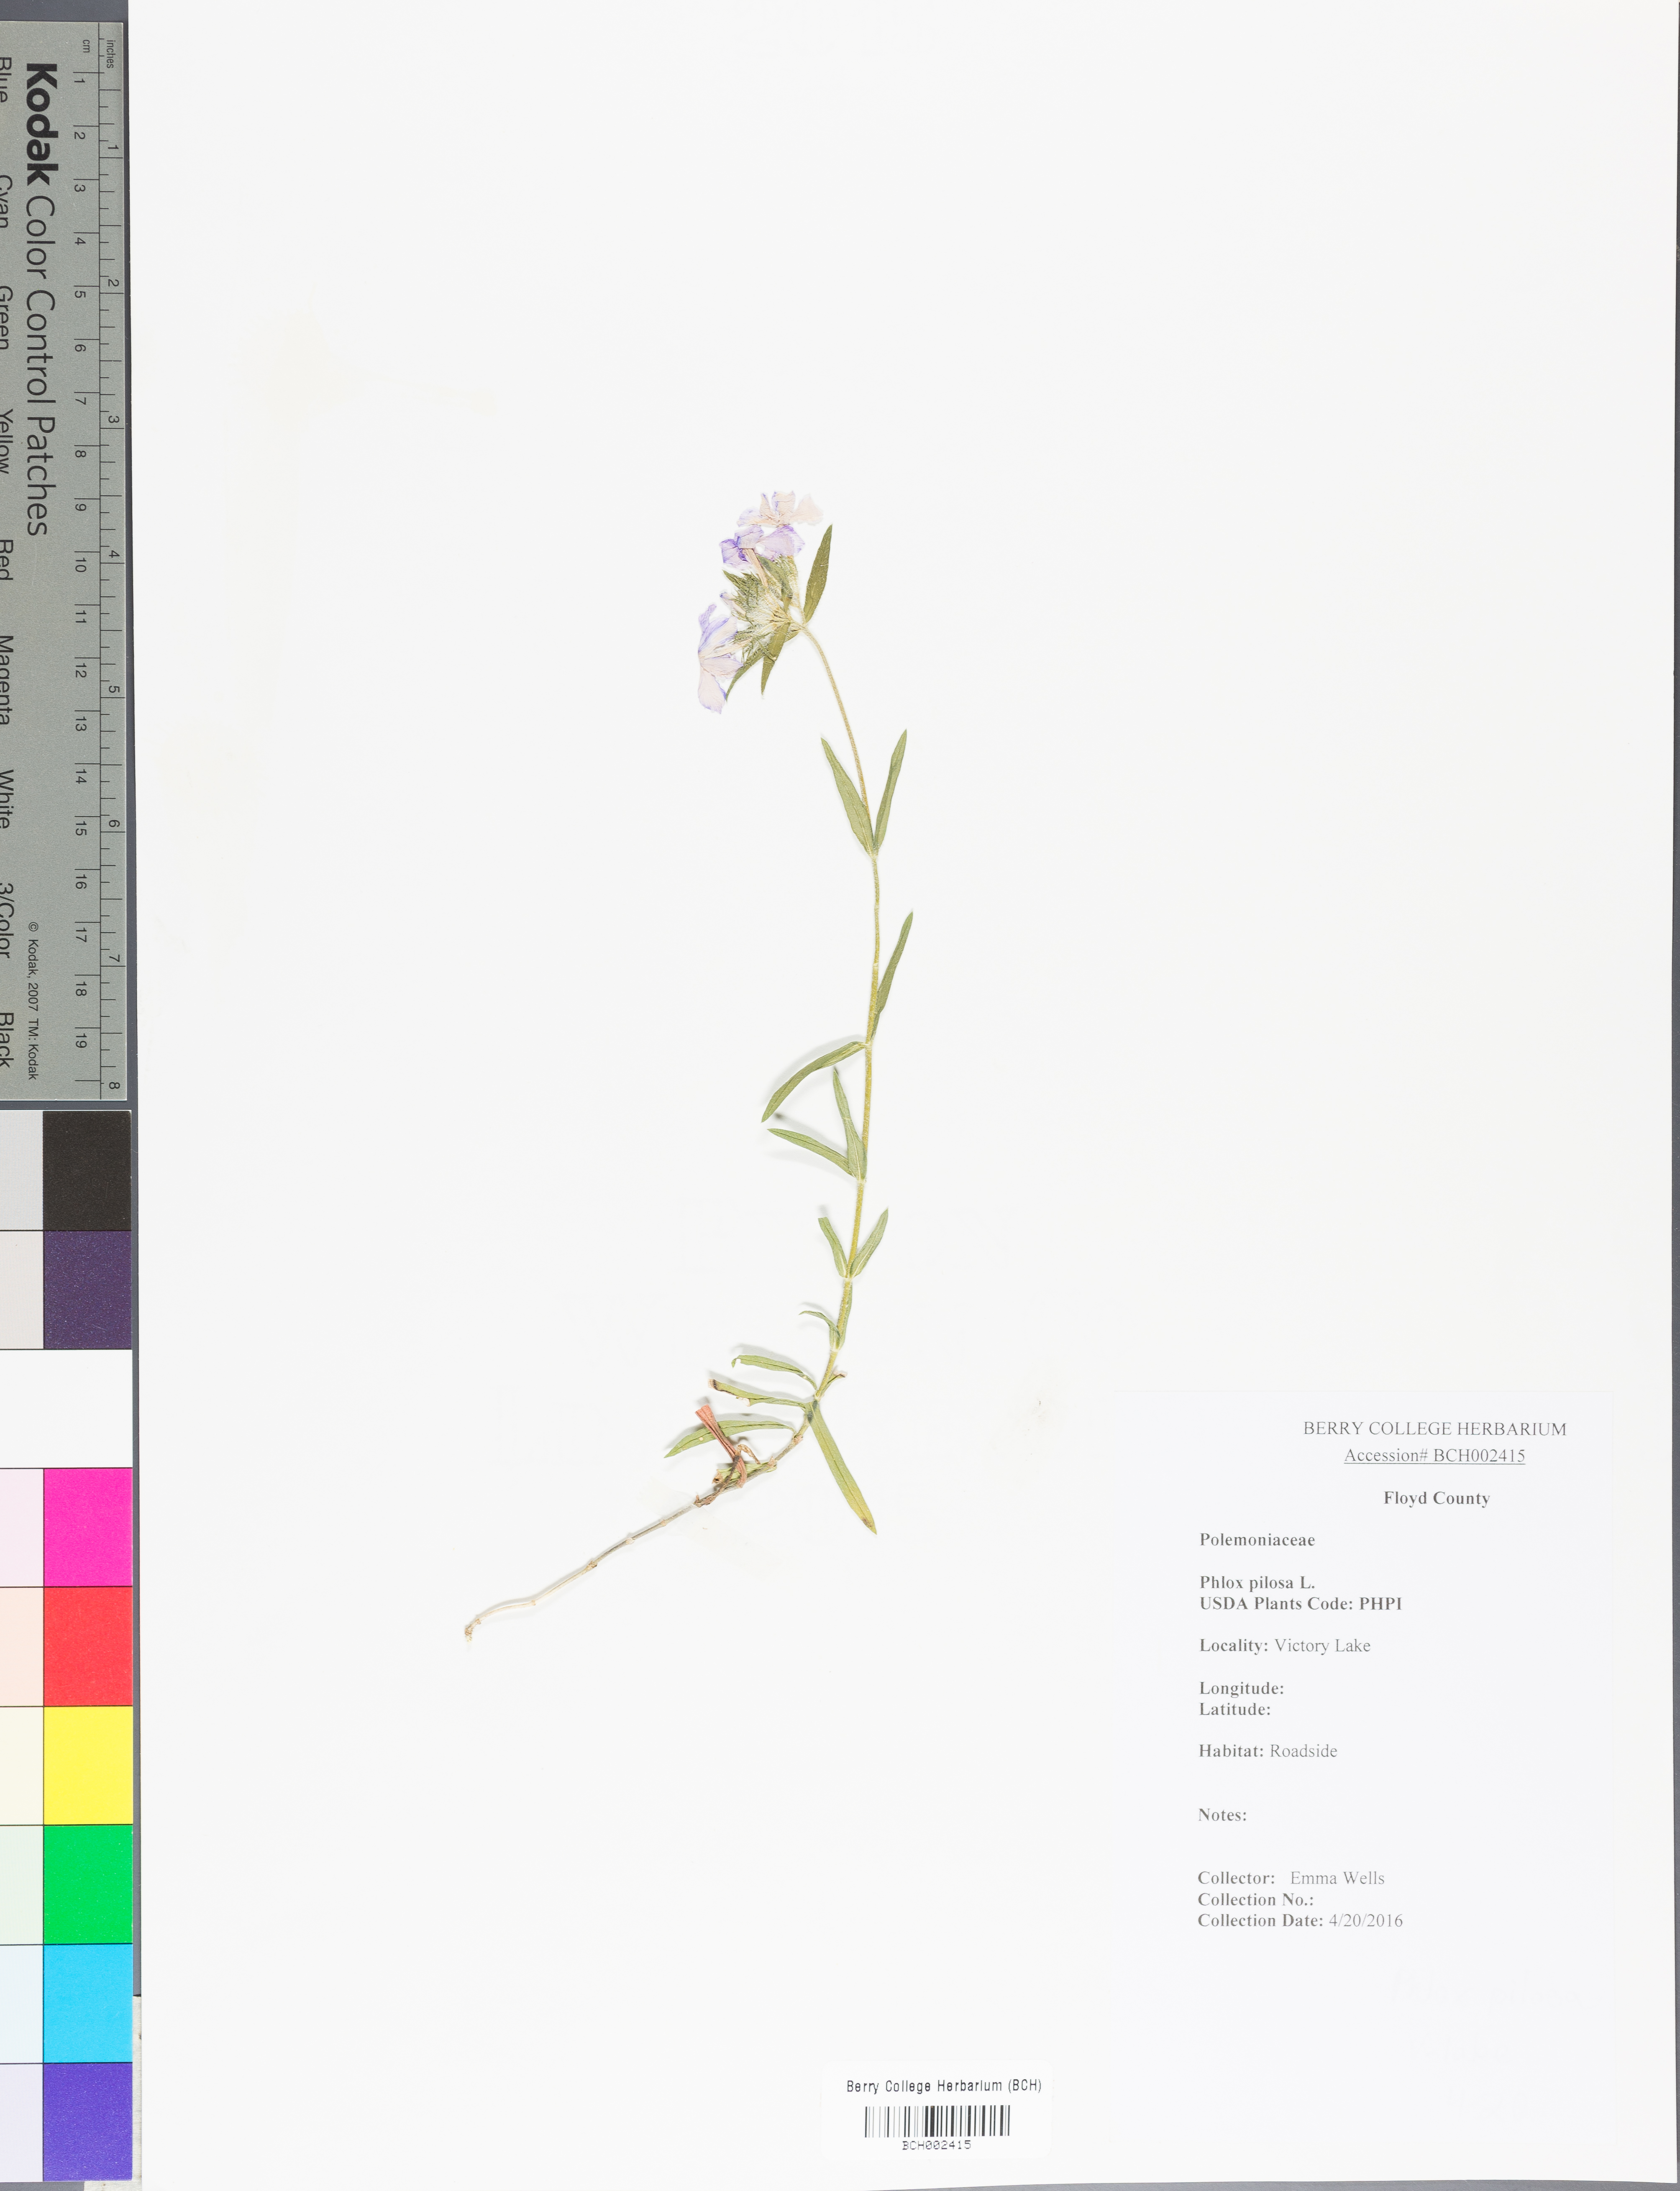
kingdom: Plantae
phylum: Tracheophyta
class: Magnoliopsida
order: Ericales
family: Polemoniaceae
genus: Phlox
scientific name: Phlox pilosa
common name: Prairie phlox
